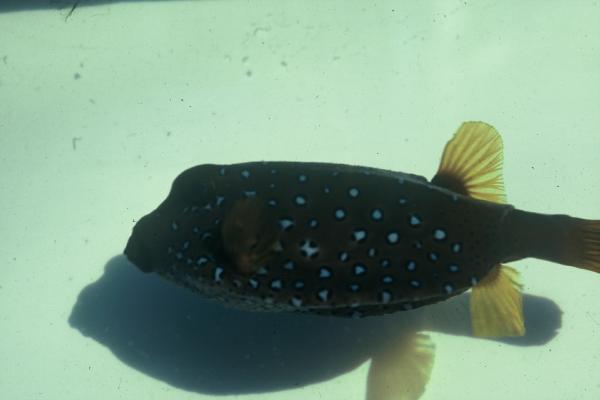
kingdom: Animalia
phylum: Chordata
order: Tetraodontiformes
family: Ostraciidae
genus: Ostracion
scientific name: Ostracion cubicus
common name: Cube trunkfish
